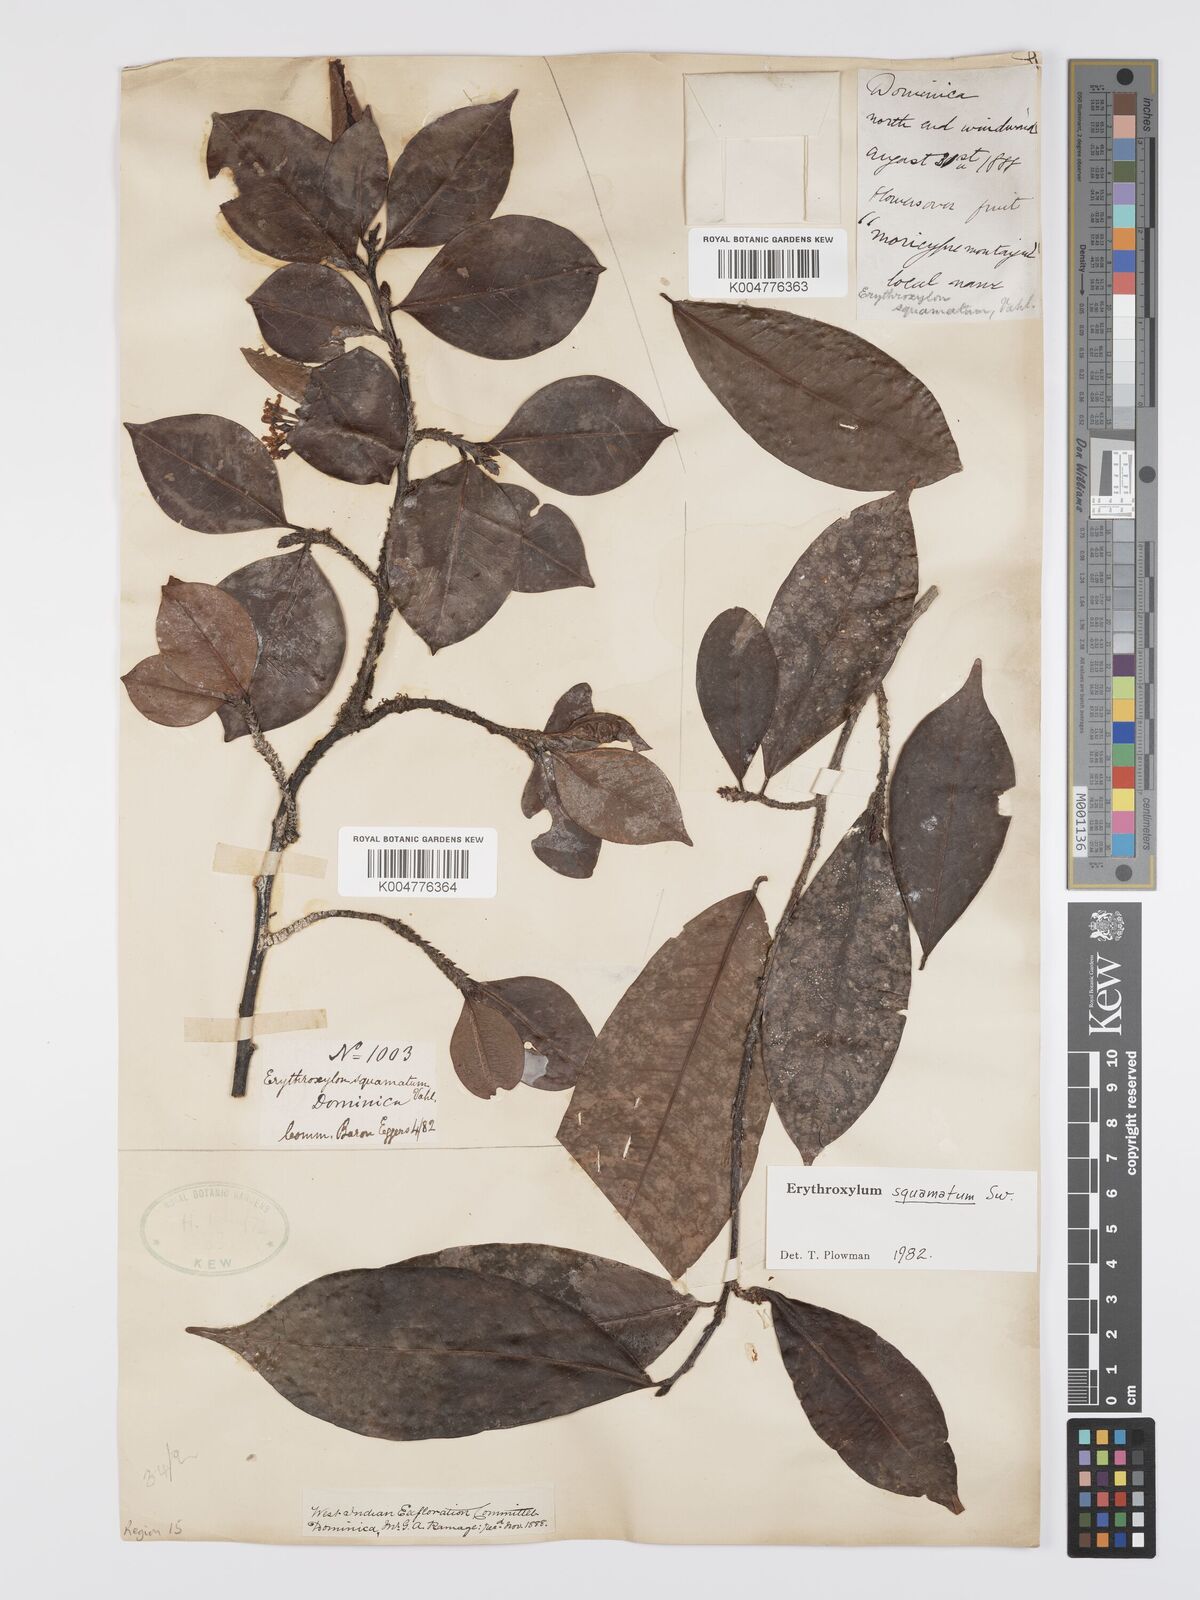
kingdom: Plantae
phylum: Tracheophyta
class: Magnoliopsida
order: Malpighiales
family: Erythroxylaceae
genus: Erythroxylum
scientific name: Erythroxylum squamatum
